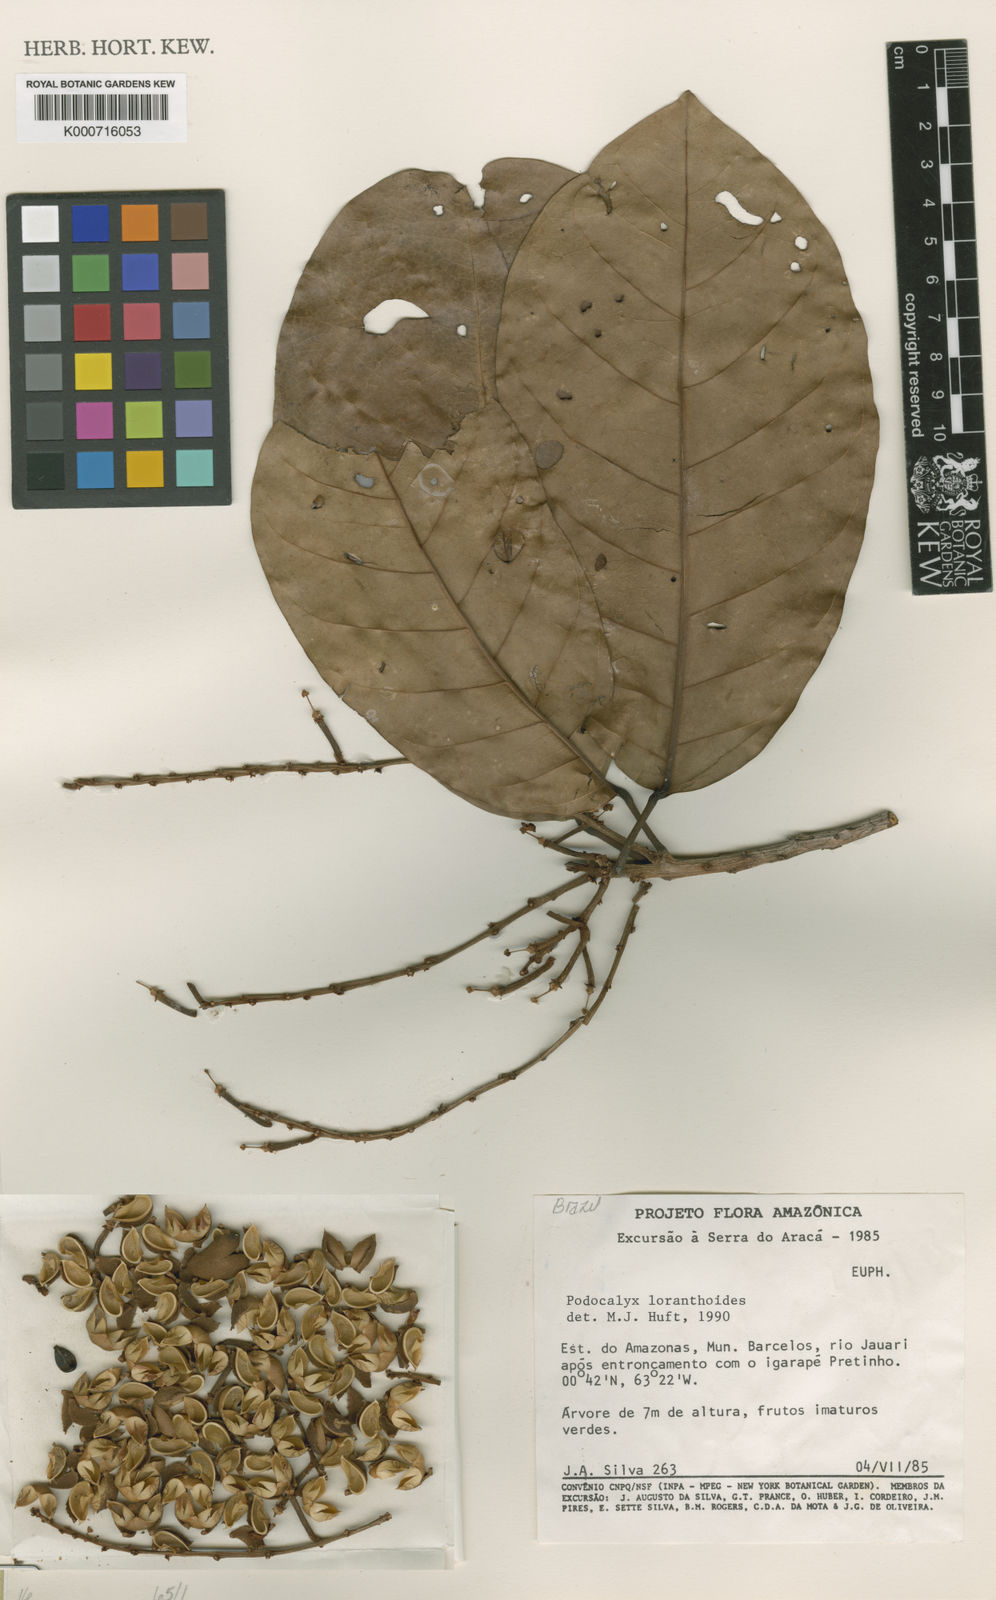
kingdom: Plantae
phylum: Tracheophyta
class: Magnoliopsida
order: Malpighiales
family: Picrodendraceae
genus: Podocalyx
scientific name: Podocalyx loranthoides
